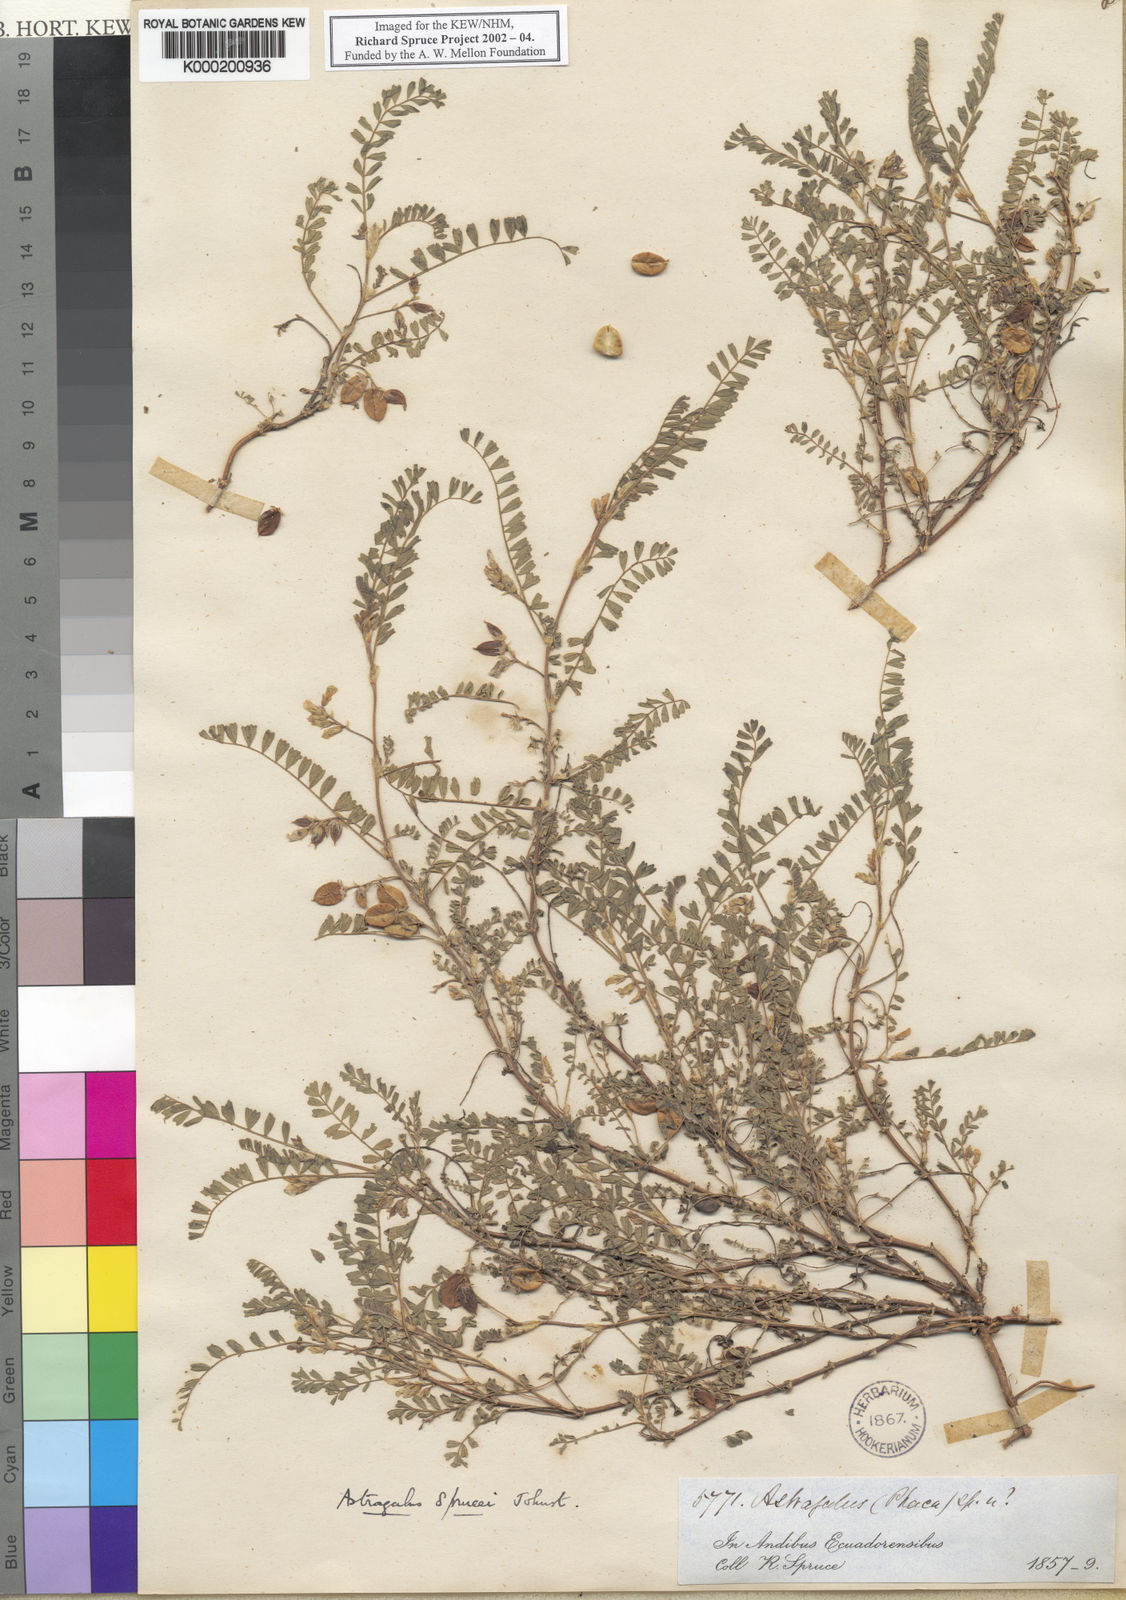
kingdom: Plantae
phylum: Tracheophyta
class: Magnoliopsida
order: Fabales
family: Fabaceae
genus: Astragalus
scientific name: Astragalus sprucei
